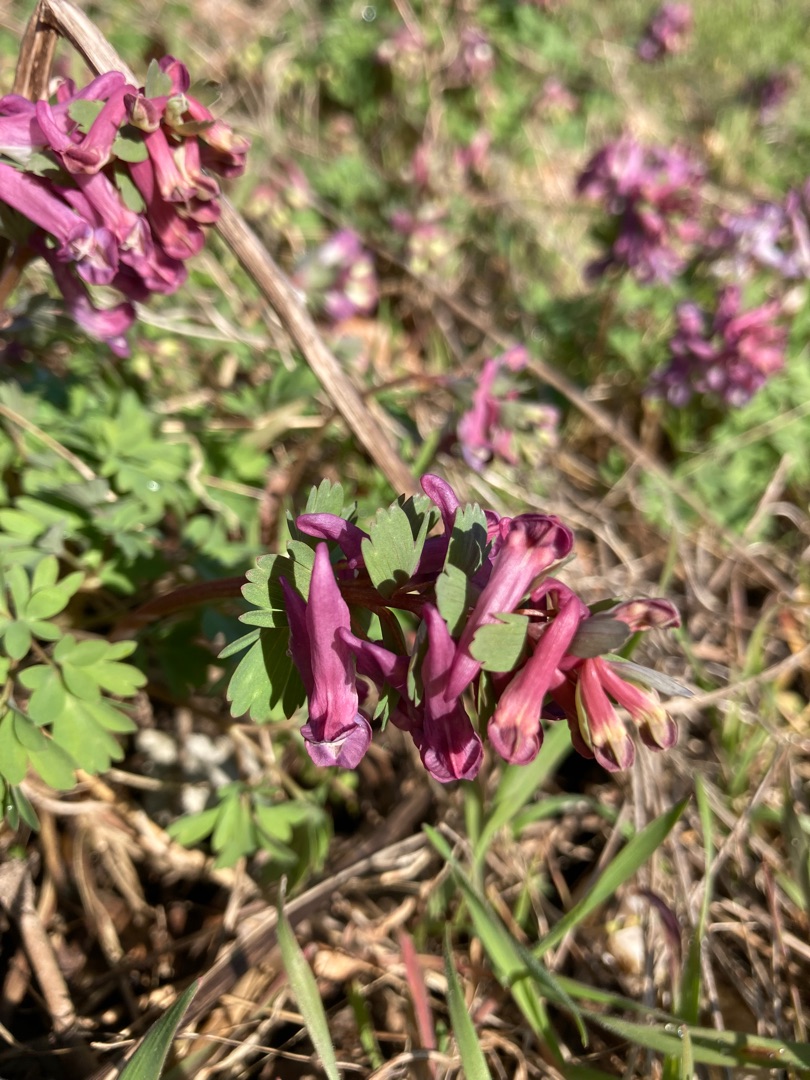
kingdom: Plantae
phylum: Tracheophyta
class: Magnoliopsida
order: Ranunculales
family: Papaveraceae
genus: Corydalis
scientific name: Corydalis solida
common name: Langstilket lærkespore
